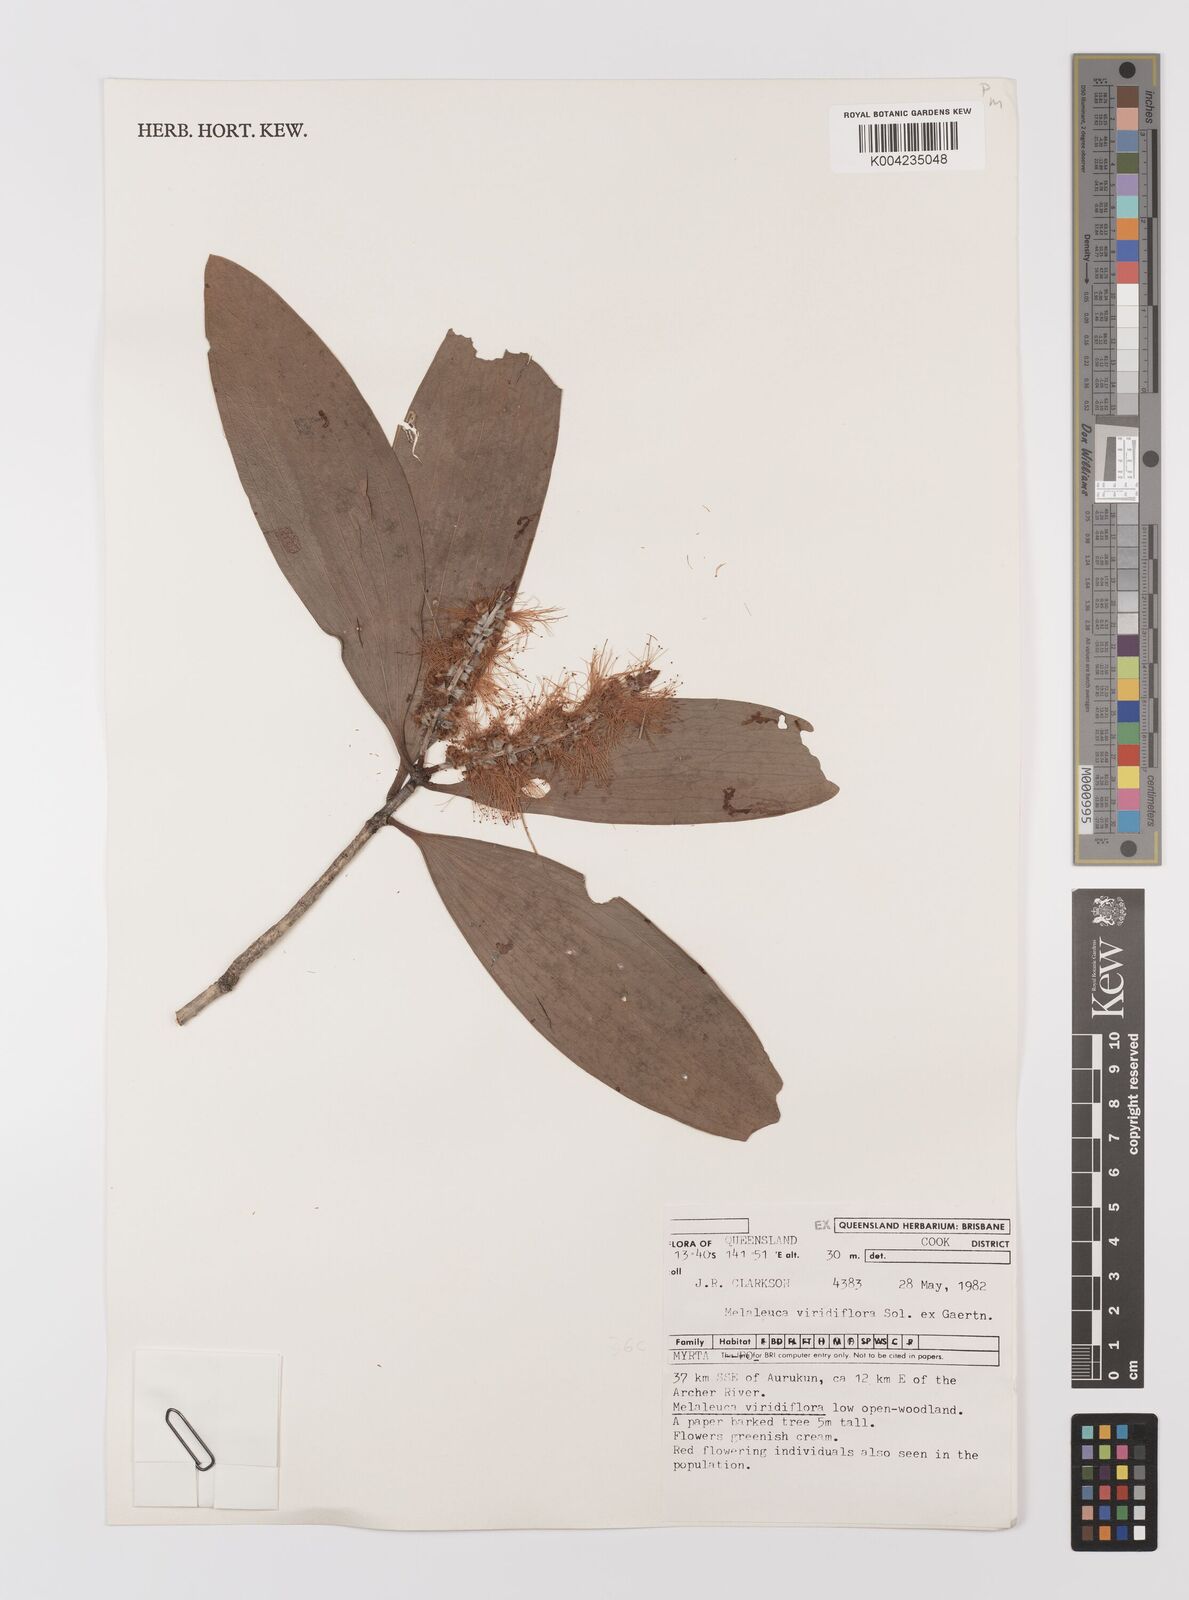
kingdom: Plantae
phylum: Tracheophyta
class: Magnoliopsida
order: Myrtales
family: Myrtaceae
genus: Melaleuca
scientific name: Melaleuca viridiflora
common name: Brown-leaved paperbark
